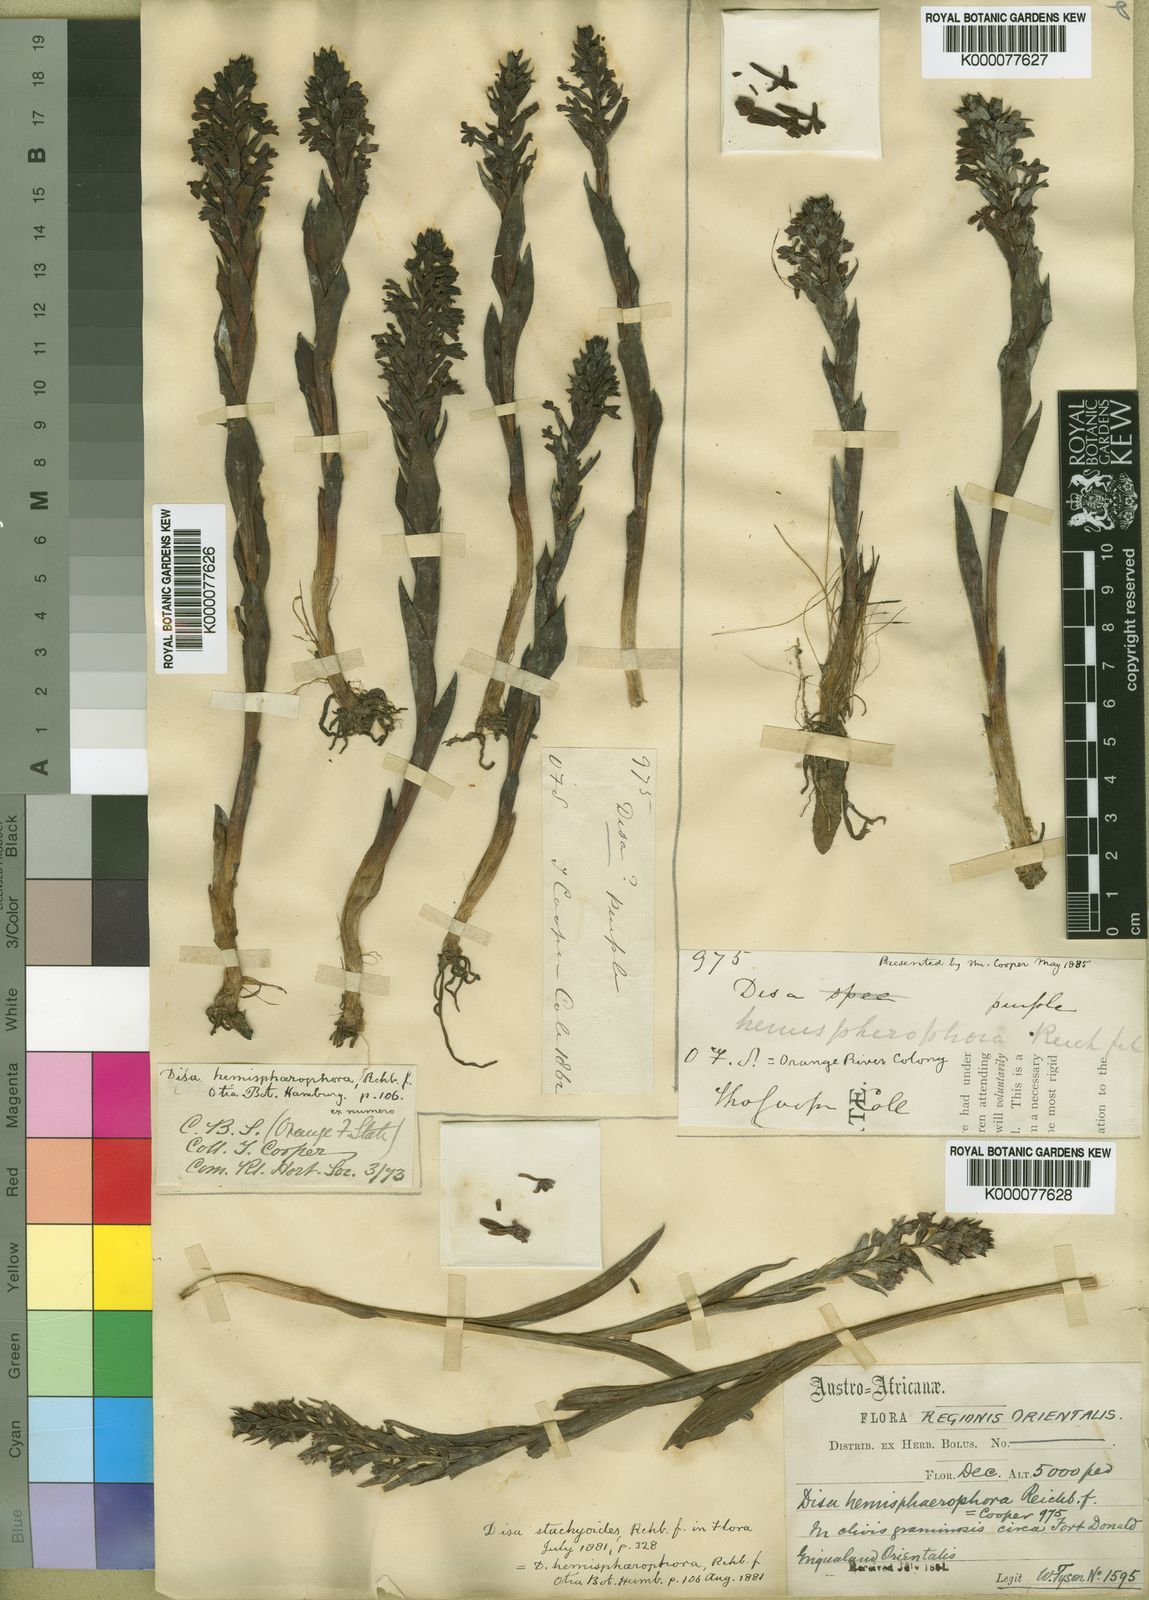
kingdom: Plantae
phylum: Tracheophyta
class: Liliopsida
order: Asparagales
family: Orchidaceae
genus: Disa
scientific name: Disa versicolor
